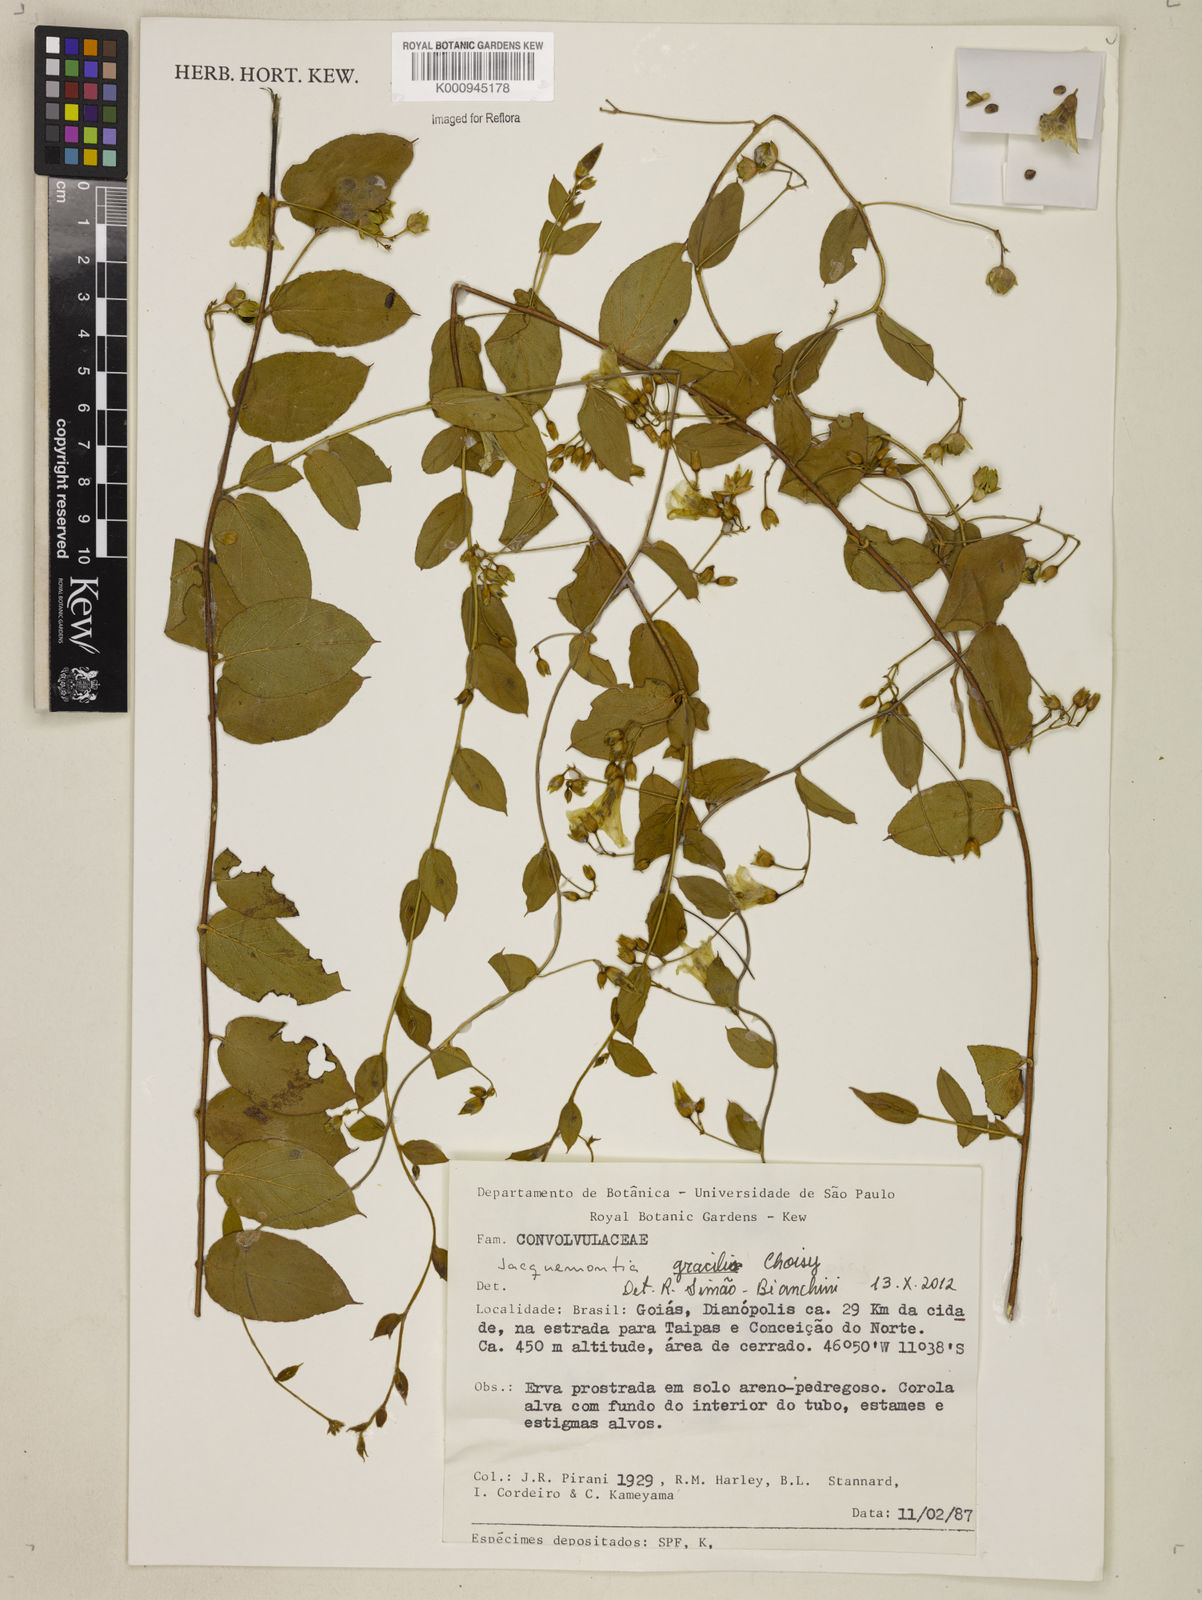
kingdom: Plantae
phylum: Tracheophyta
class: Magnoliopsida
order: Solanales
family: Convolvulaceae
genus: Jacquemontia
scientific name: Jacquemontia gracilis
